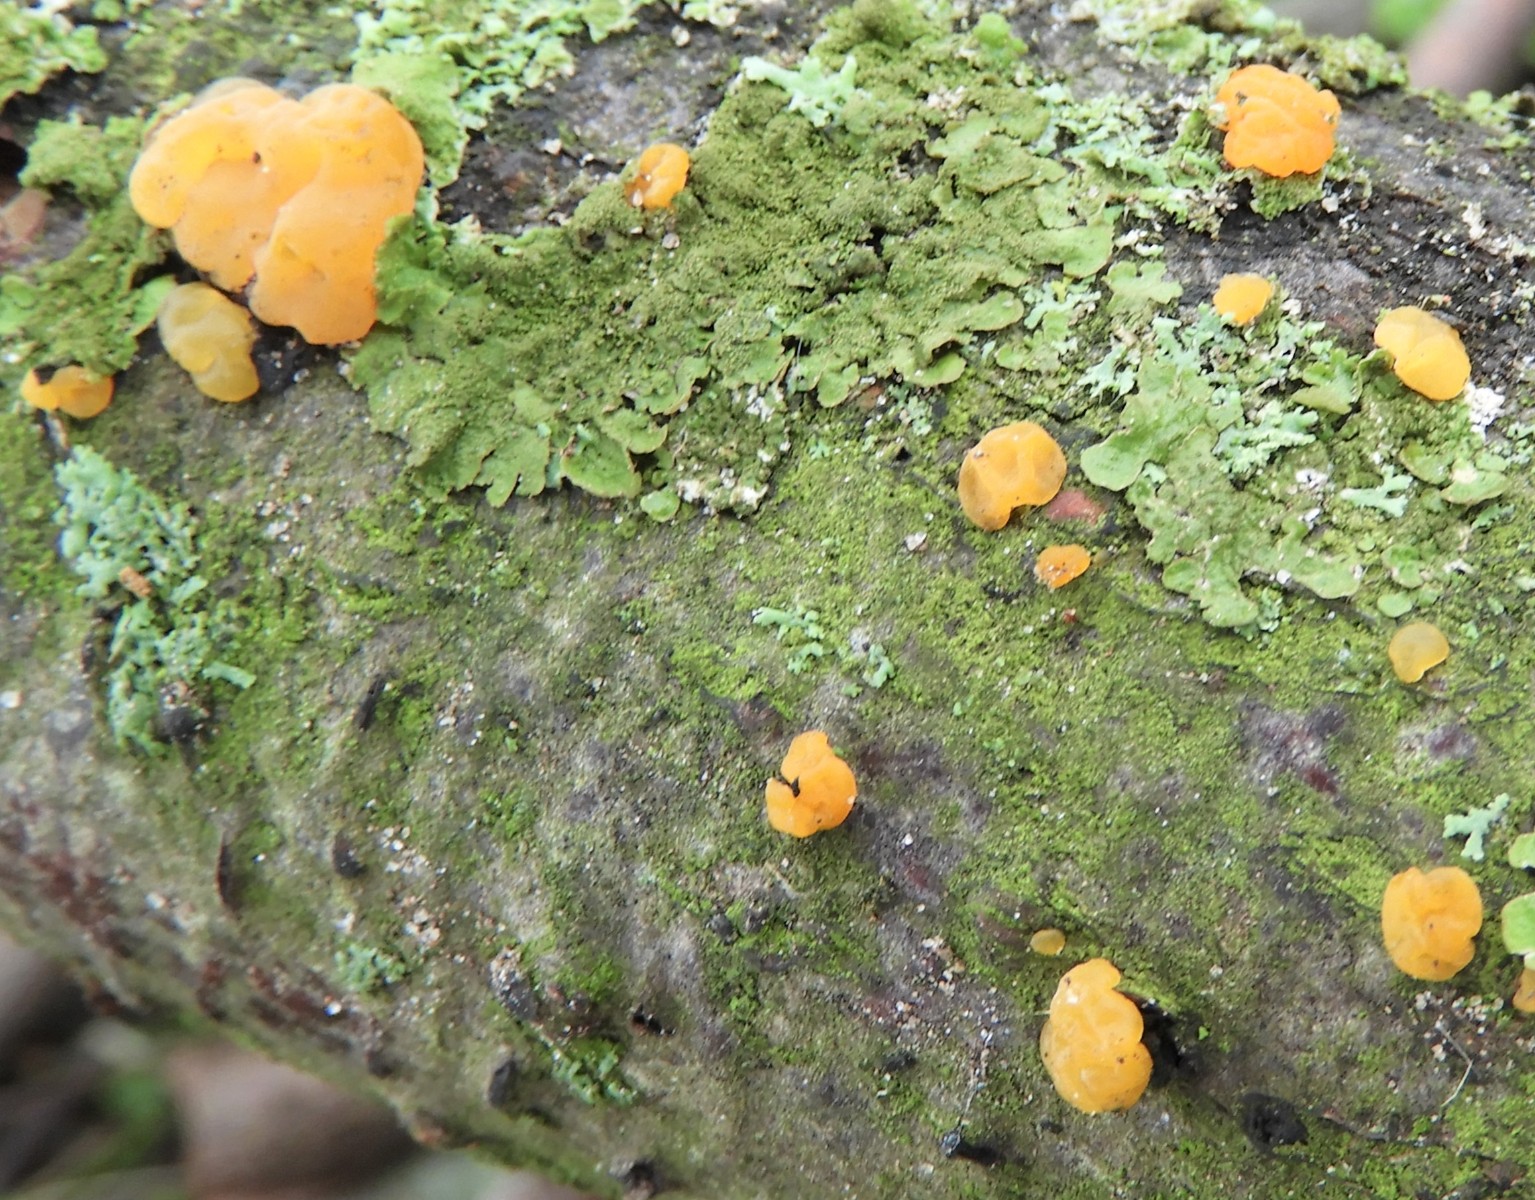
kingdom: Fungi
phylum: Basidiomycota
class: Dacrymycetes
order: Dacrymycetales
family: Dacrymycetaceae
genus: Dacrymyces
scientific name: Dacrymyces lacrymalis
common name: rynket tåresvamp
